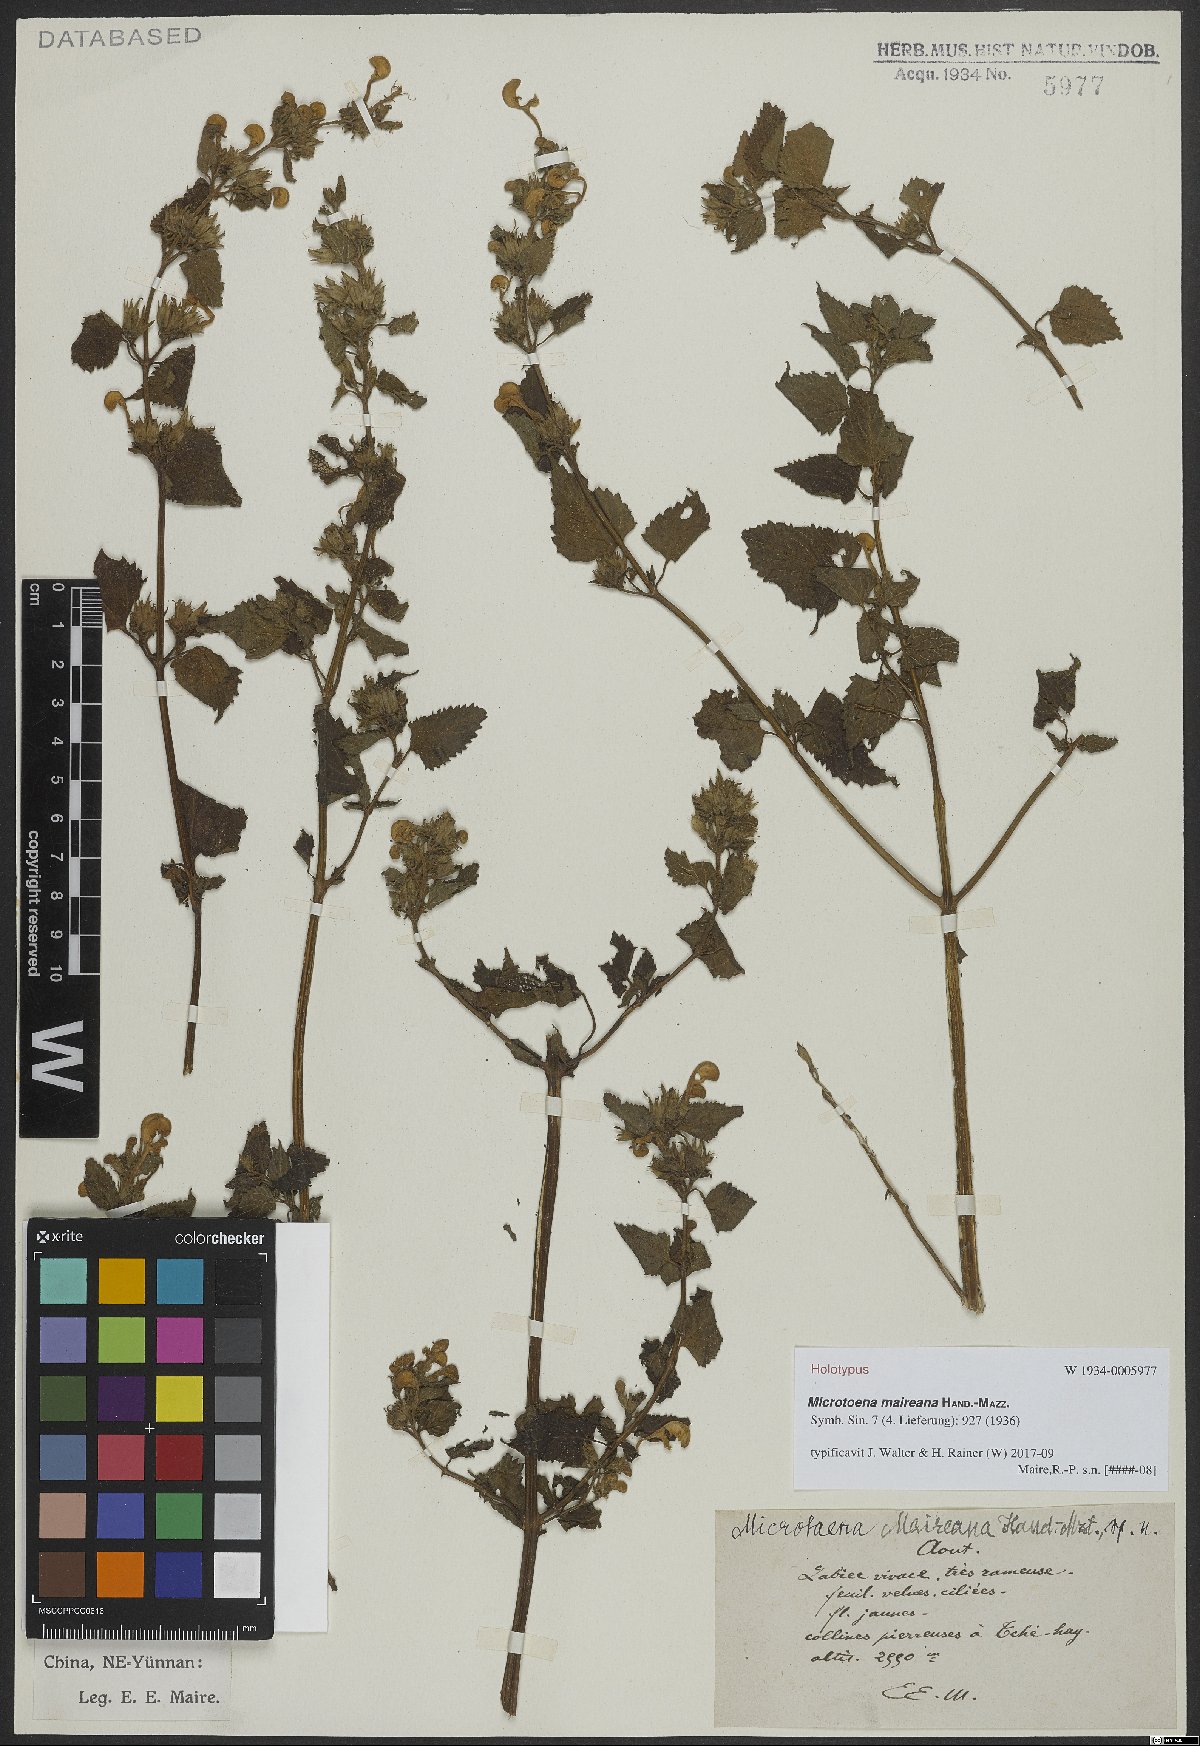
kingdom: Plantae
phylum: Tracheophyta
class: Magnoliopsida
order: Lamiales
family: Lamiaceae
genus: Microtoena
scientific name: Microtoena moupinensis
